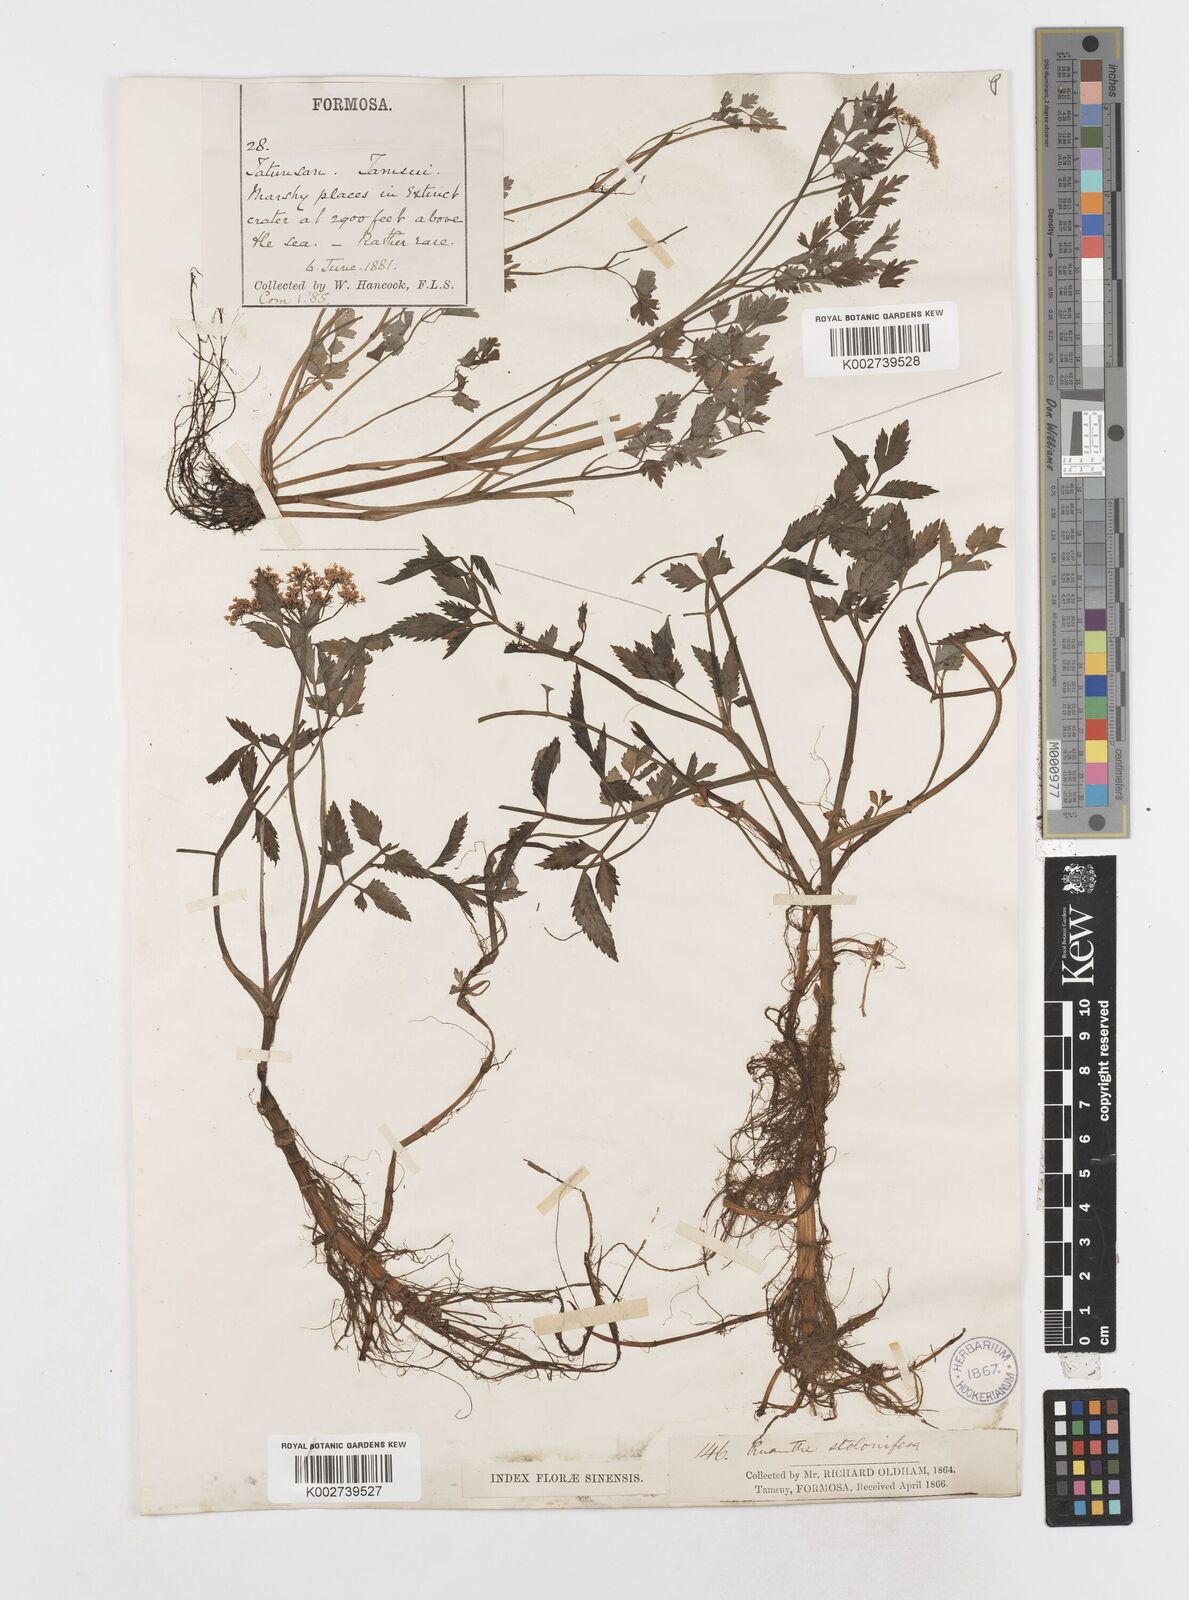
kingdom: Plantae
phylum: Tracheophyta
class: Magnoliopsida
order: Apiales
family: Apiaceae
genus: Oenanthe
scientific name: Oenanthe javanica
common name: Java water-dropwort
